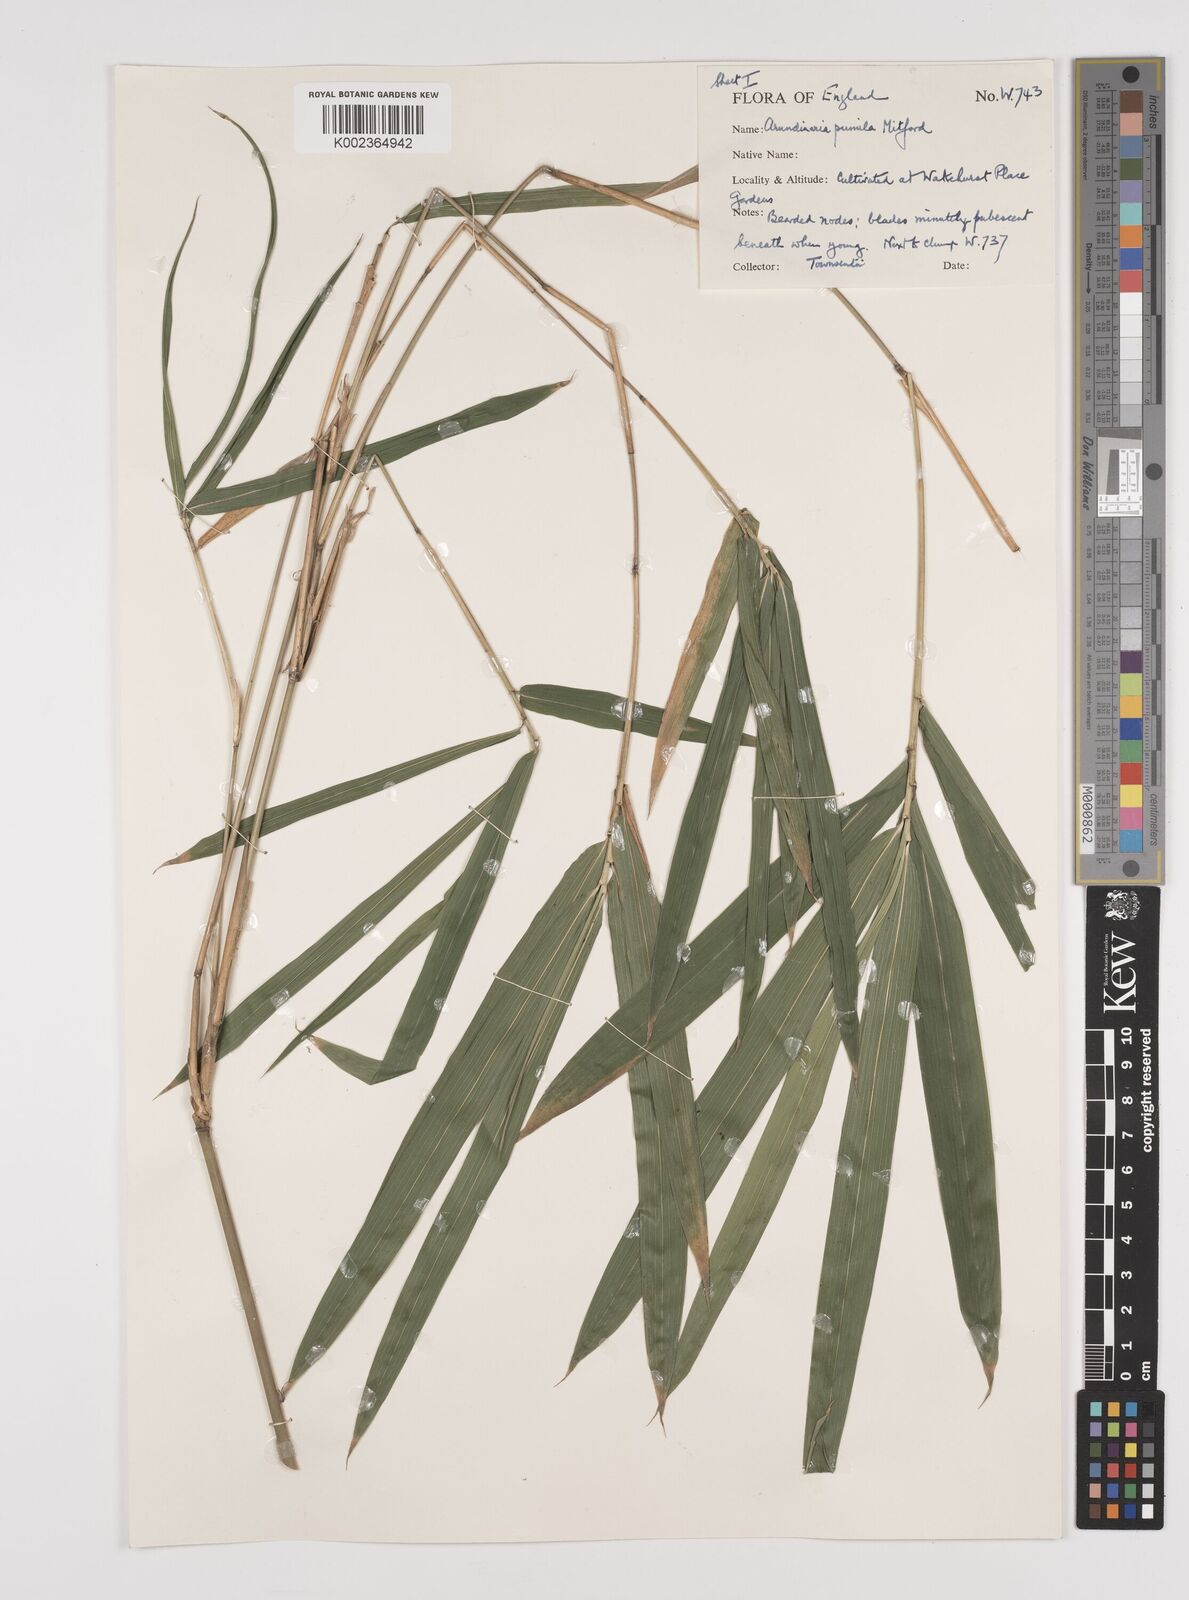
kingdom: Plantae
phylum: Tracheophyta
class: Liliopsida
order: Poales
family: Poaceae
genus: Pleioblastus
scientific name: Pleioblastus argenteostriatus
